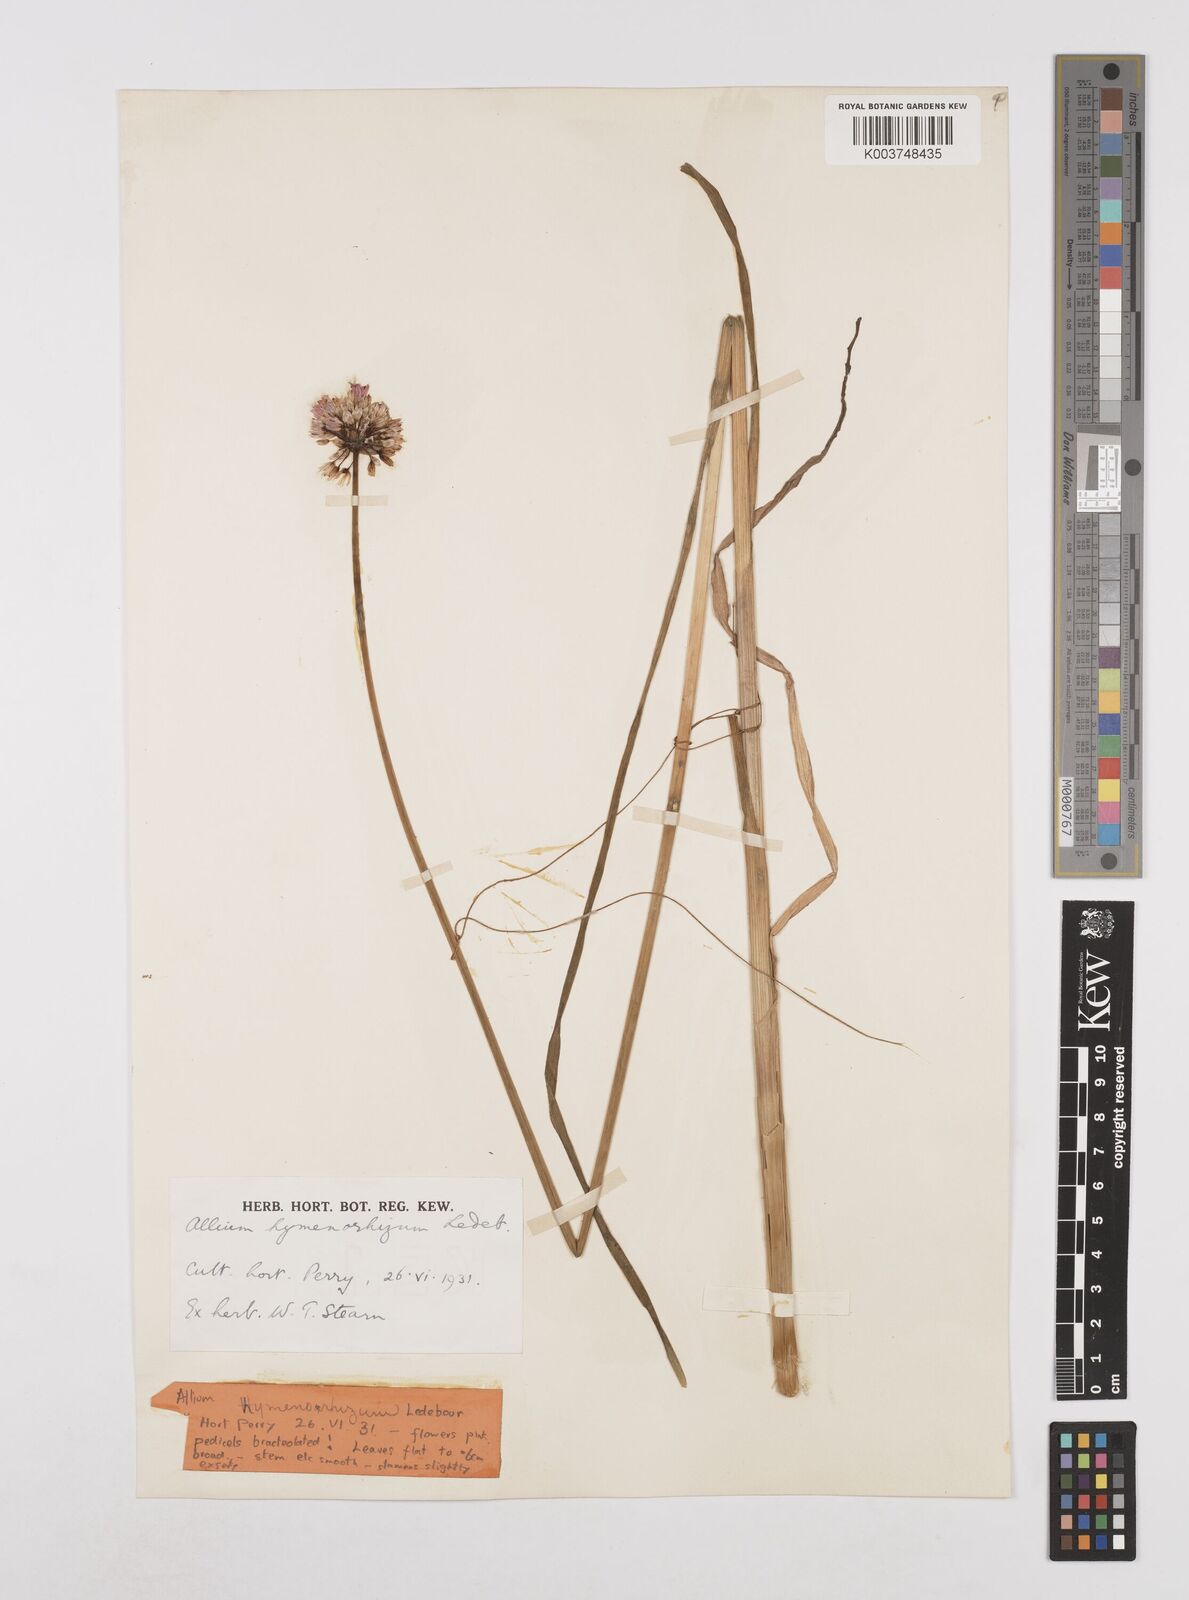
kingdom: Plantae
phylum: Tracheophyta
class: Liliopsida
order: Asparagales
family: Amaryllidaceae
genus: Allium
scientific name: Allium hymenorhizum
